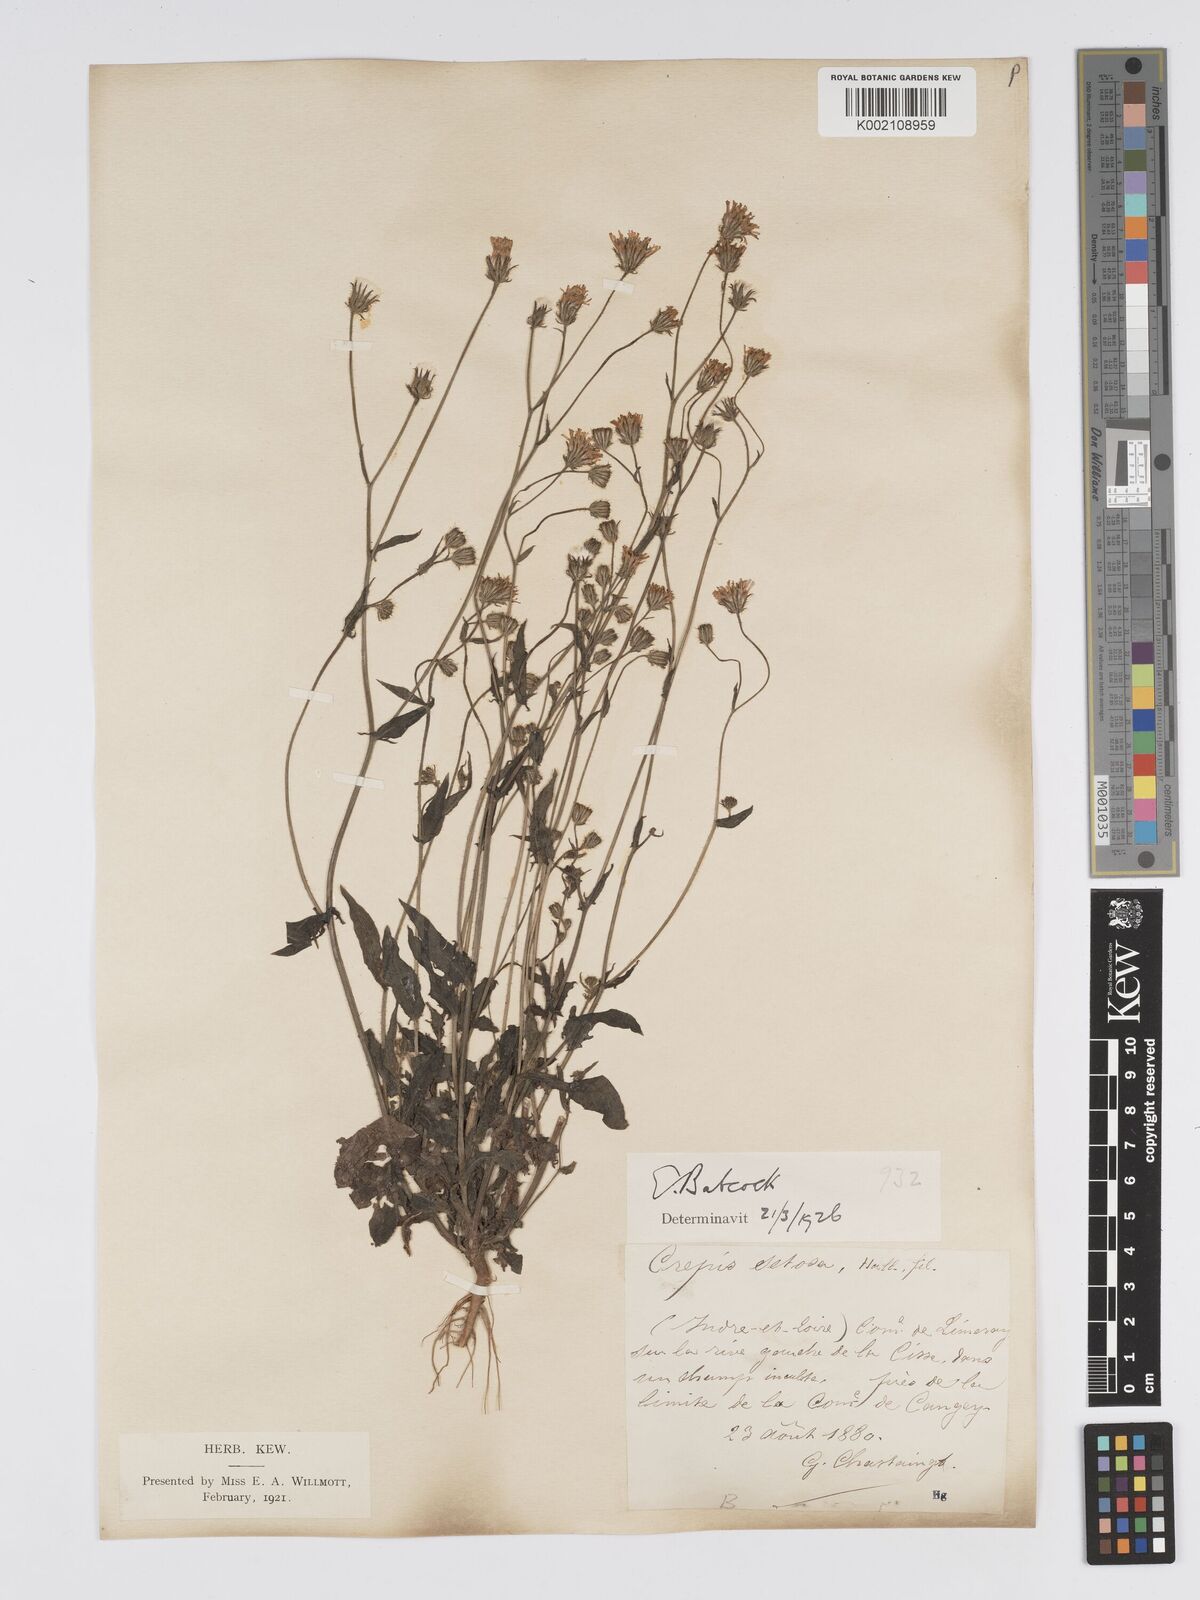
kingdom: Plantae
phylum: Tracheophyta
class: Magnoliopsida
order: Asterales
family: Asteraceae
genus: Crepis
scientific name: Crepis setosa
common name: Bristly hawk's-beard
